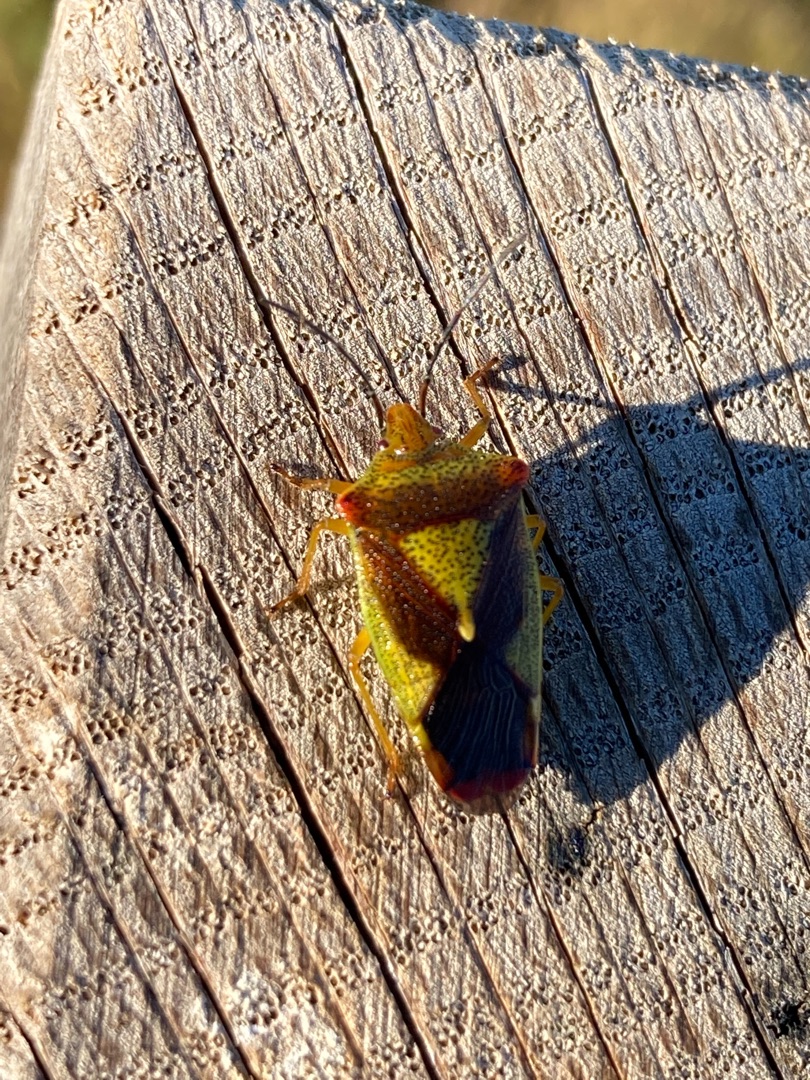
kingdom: Animalia
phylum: Arthropoda
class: Insecta
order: Hemiptera
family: Acanthosomatidae
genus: Acanthosoma
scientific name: Acanthosoma haemorrhoidale
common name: Stor løvtæge
